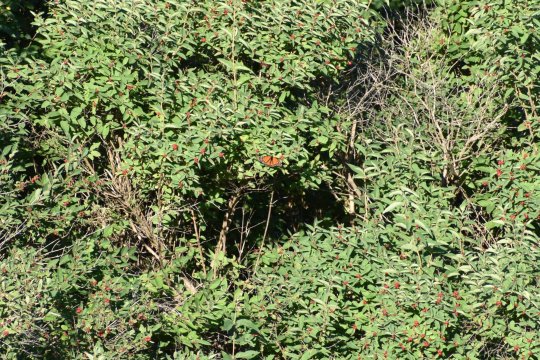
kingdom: Animalia
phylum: Arthropoda
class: Insecta
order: Lepidoptera
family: Nymphalidae
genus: Danaus
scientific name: Danaus plexippus
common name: Monarch
